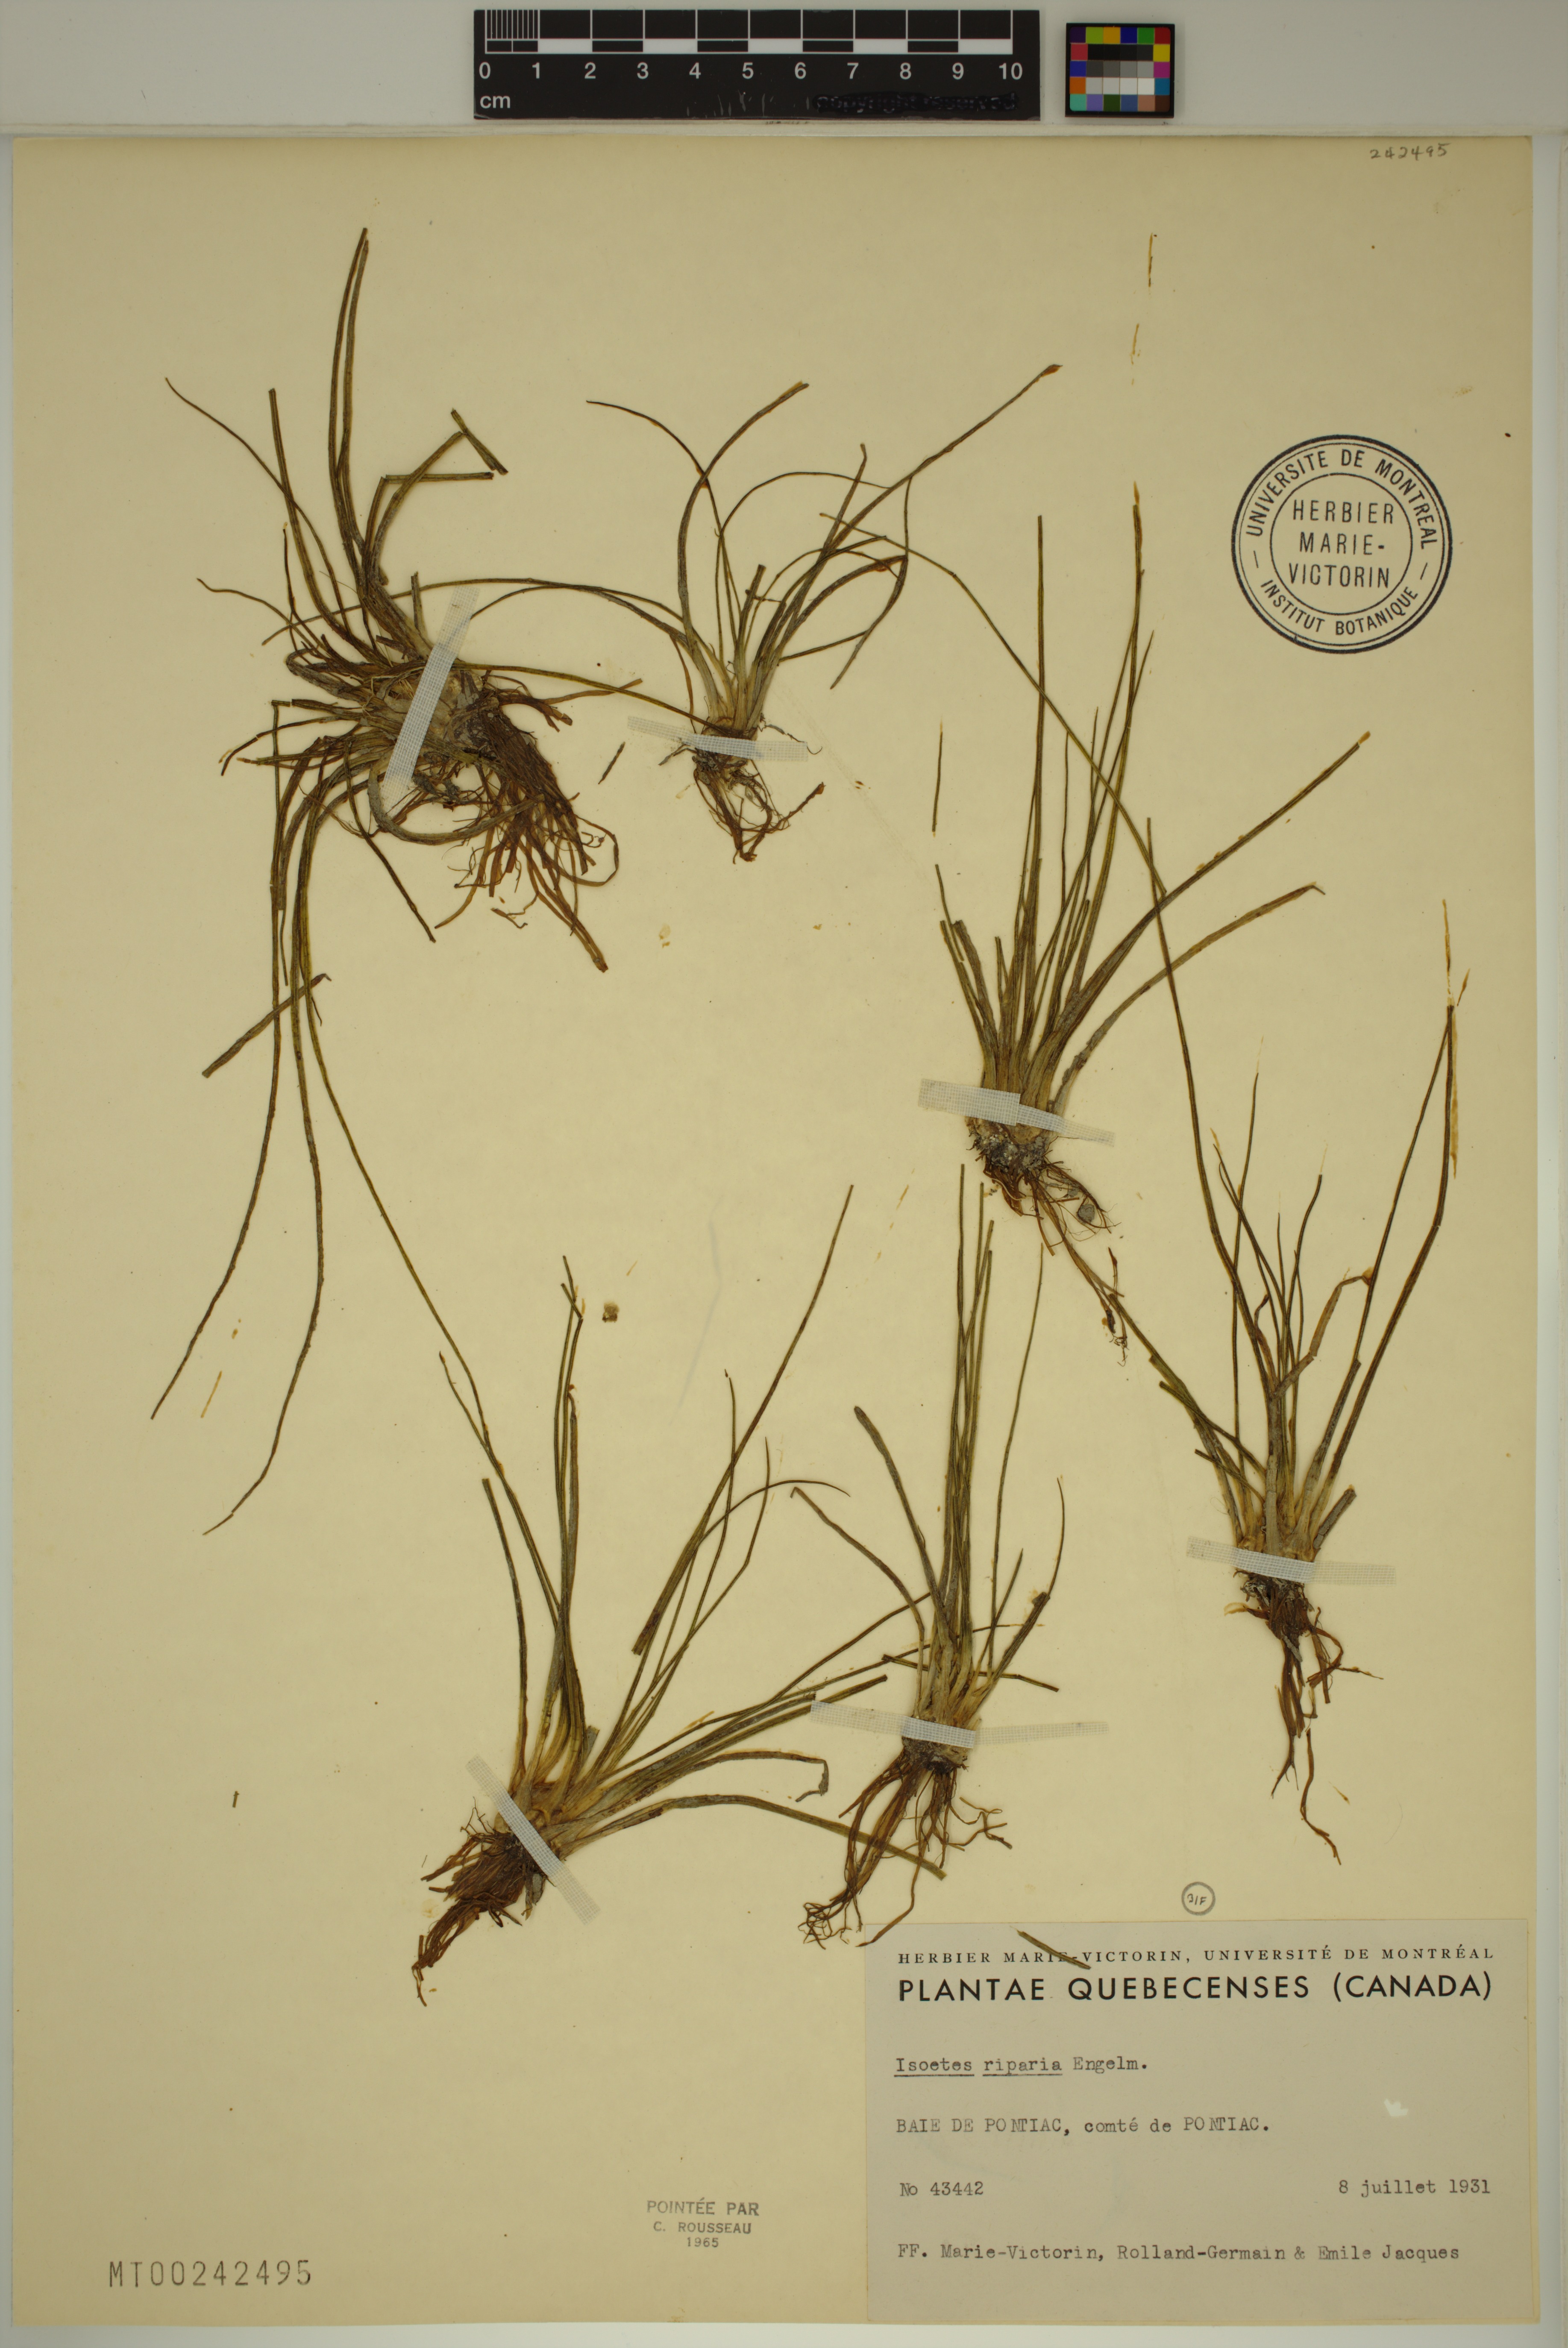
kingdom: Plantae
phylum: Tracheophyta
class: Lycopodiopsida
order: Isoetales
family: Isoetaceae
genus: Isoetes
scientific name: Isoetes septentrionalis
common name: Northern quillwort
